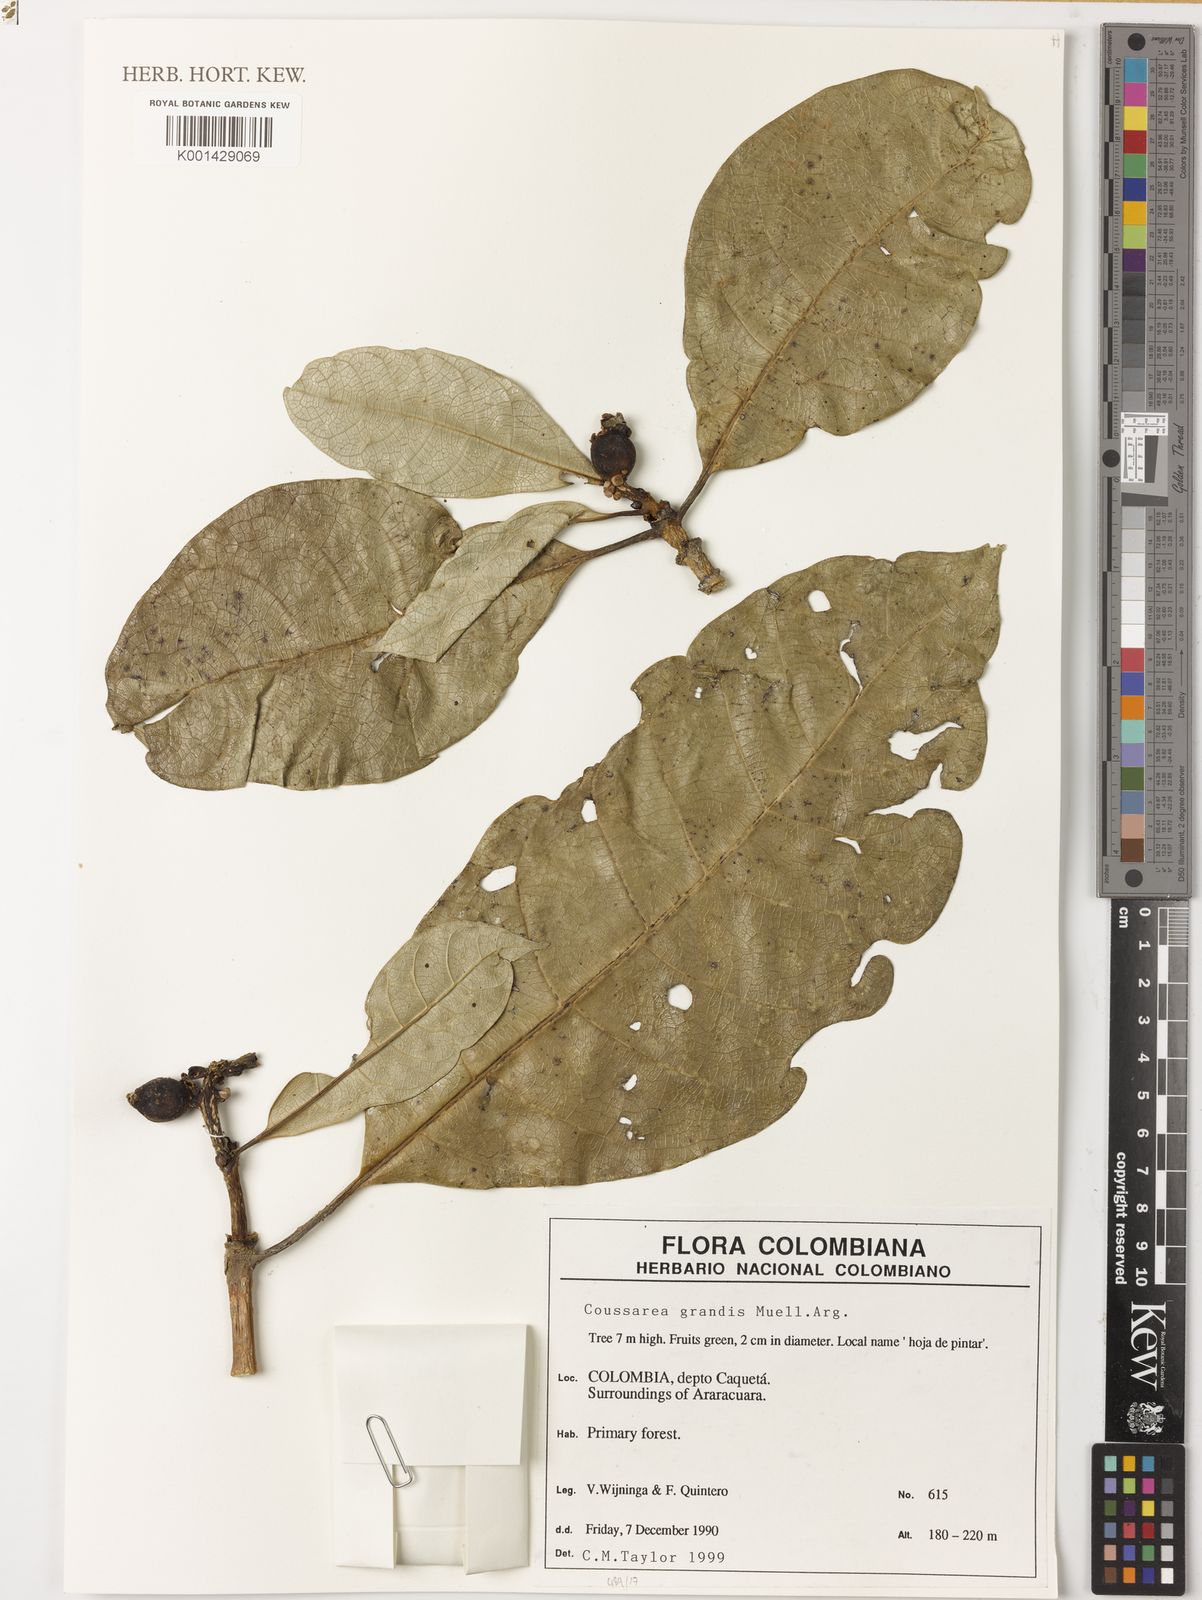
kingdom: Plantae
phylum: Tracheophyta
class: Magnoliopsida
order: Gentianales
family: Rubiaceae
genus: Coussarea
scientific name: Coussarea
